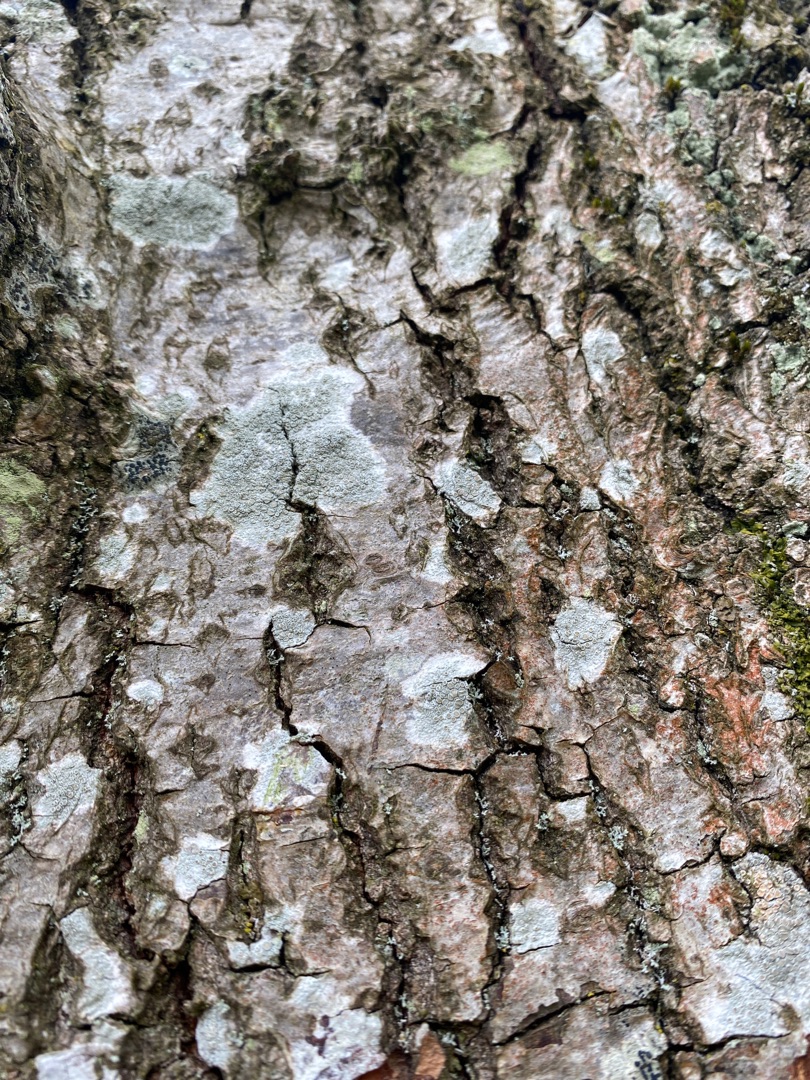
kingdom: Fungi
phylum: Ascomycota
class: Lecanoromycetes
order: Lecanorales
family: Lecanoraceae
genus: Lecanora
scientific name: Lecanora chlarotera
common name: Brun kantskivelav
